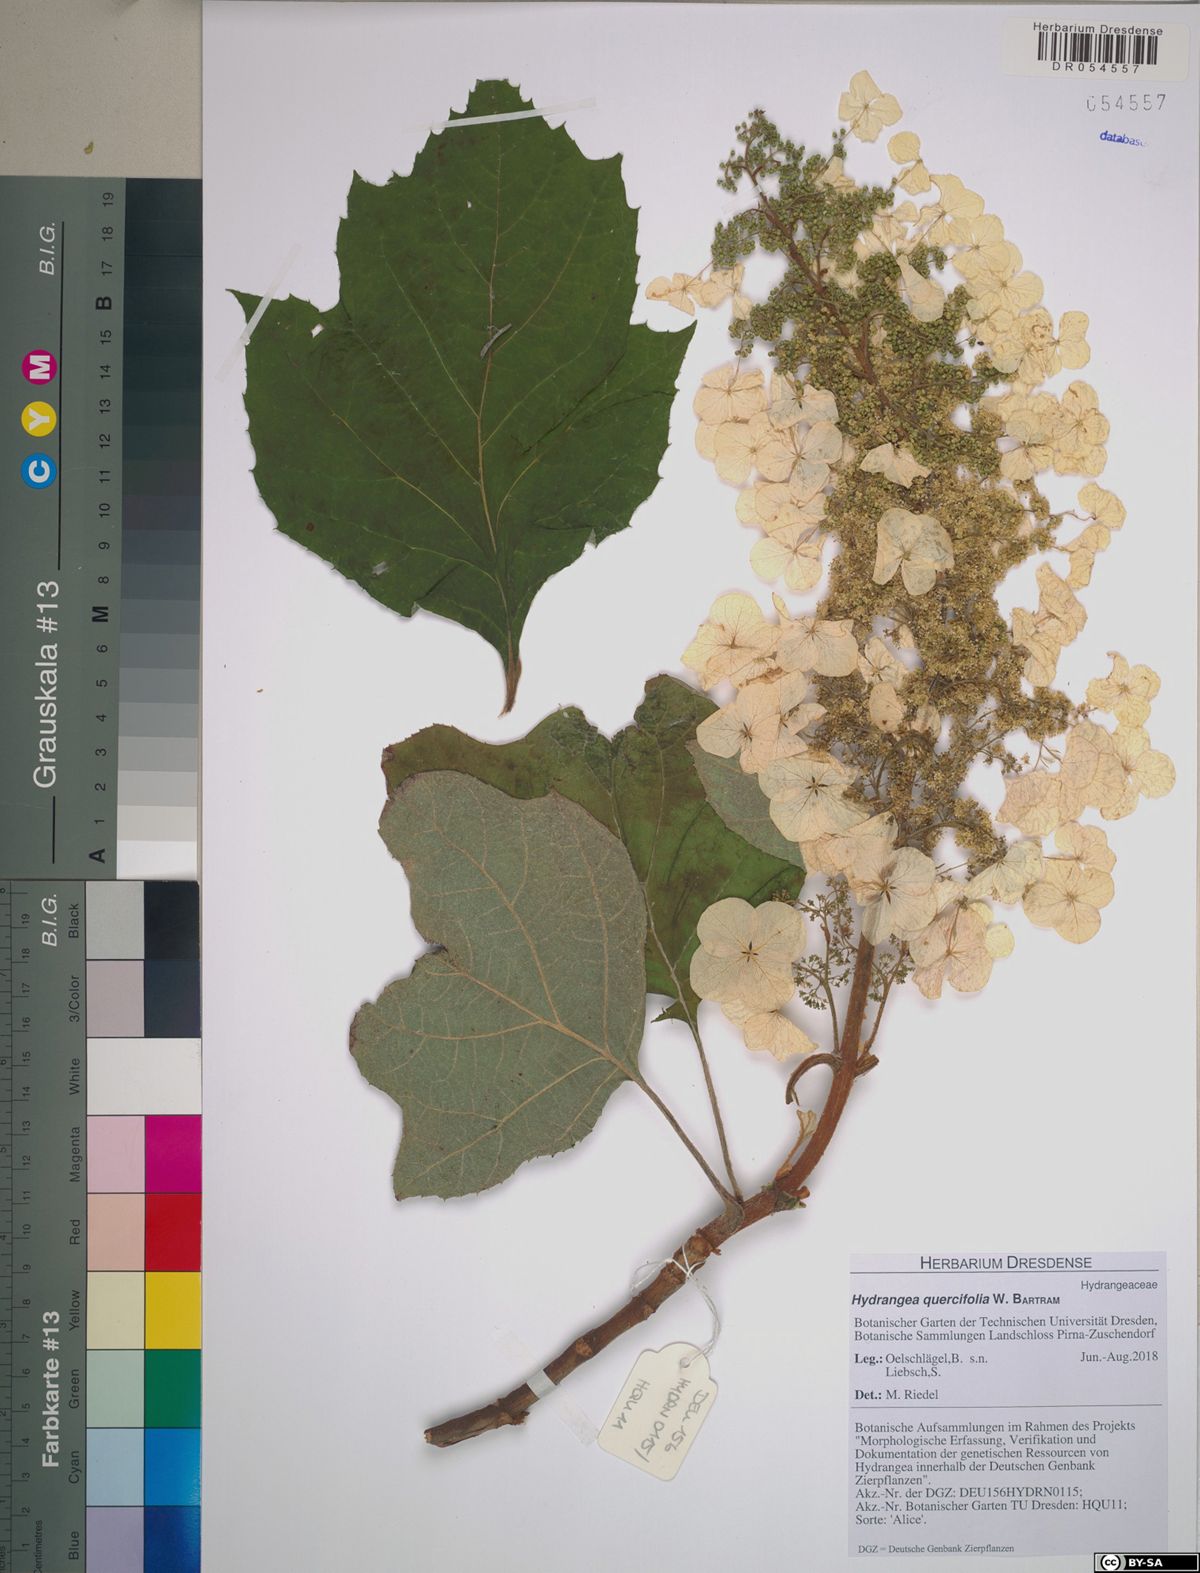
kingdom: Plantae
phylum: Tracheophyta
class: Magnoliopsida
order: Cornales
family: Hydrangeaceae
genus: Hydrangea
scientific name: Hydrangea quercifolia
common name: Oak-leaf hydrangea
